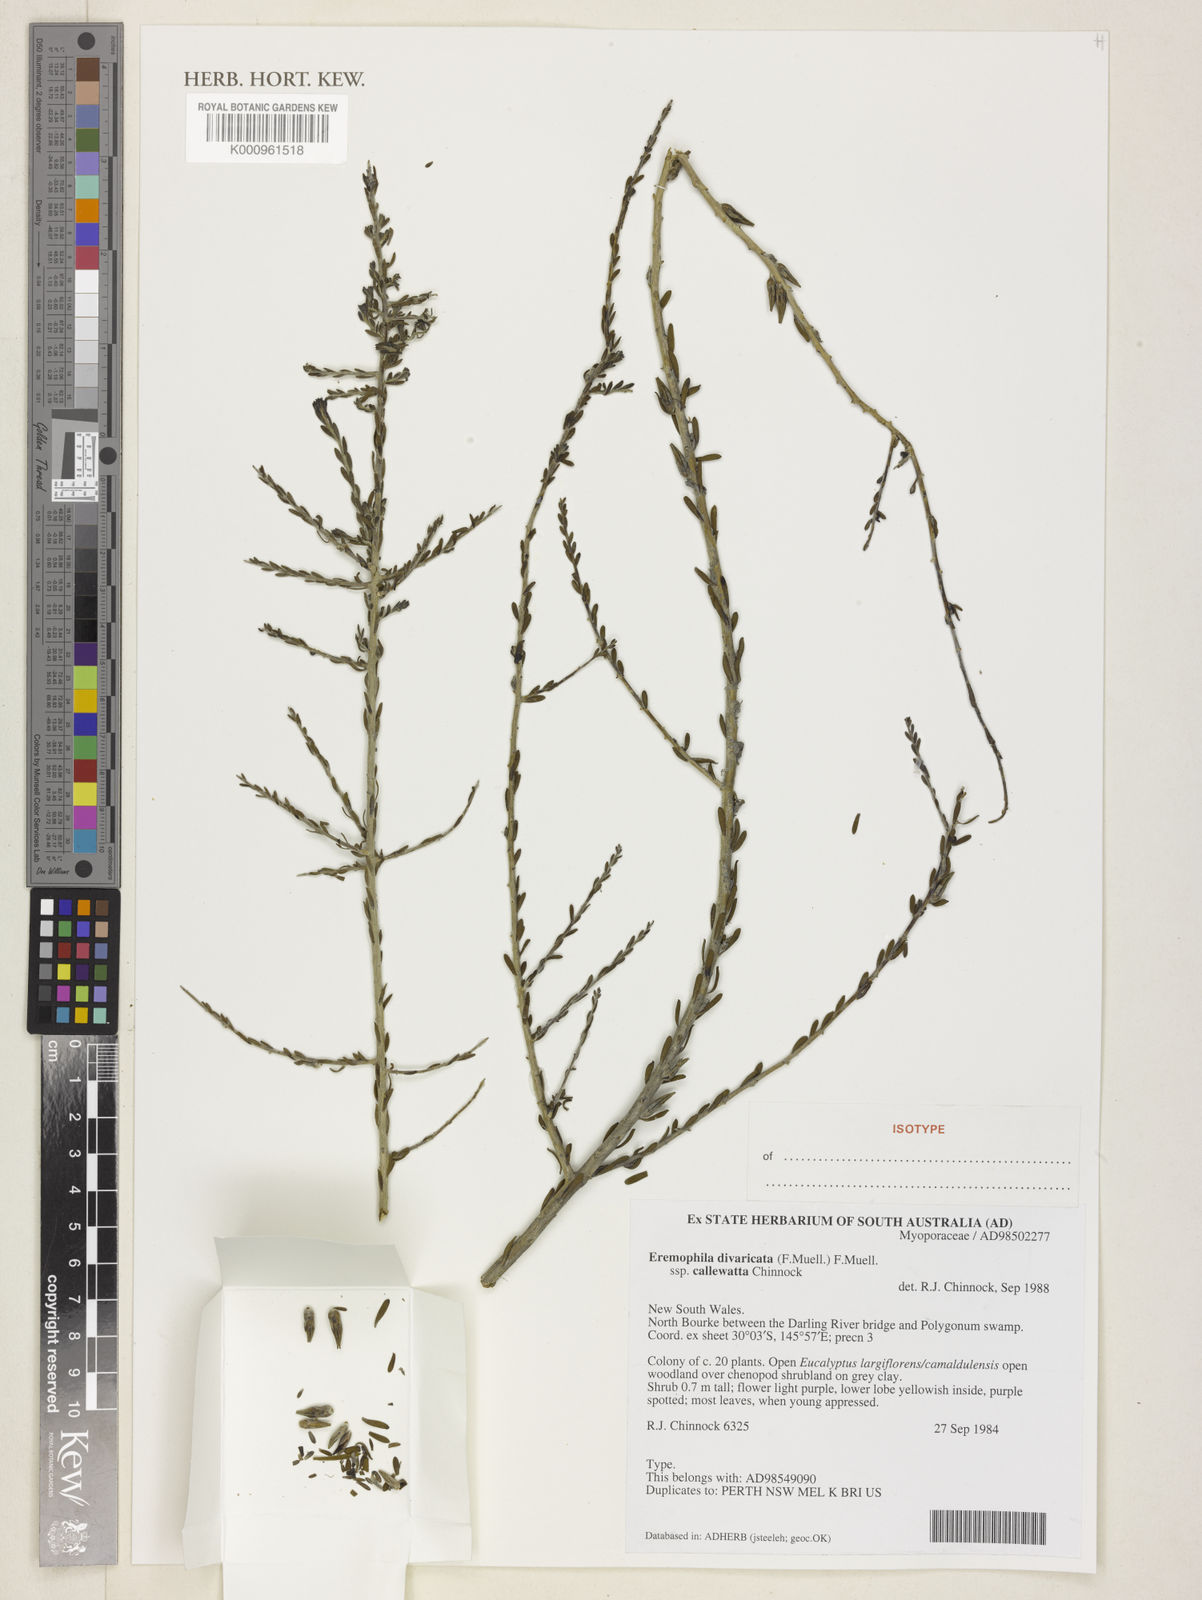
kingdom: Plantae
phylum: Tracheophyta
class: Magnoliopsida
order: Lamiales
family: Scrophulariaceae
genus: Eremophila
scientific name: Eremophila divaricata
